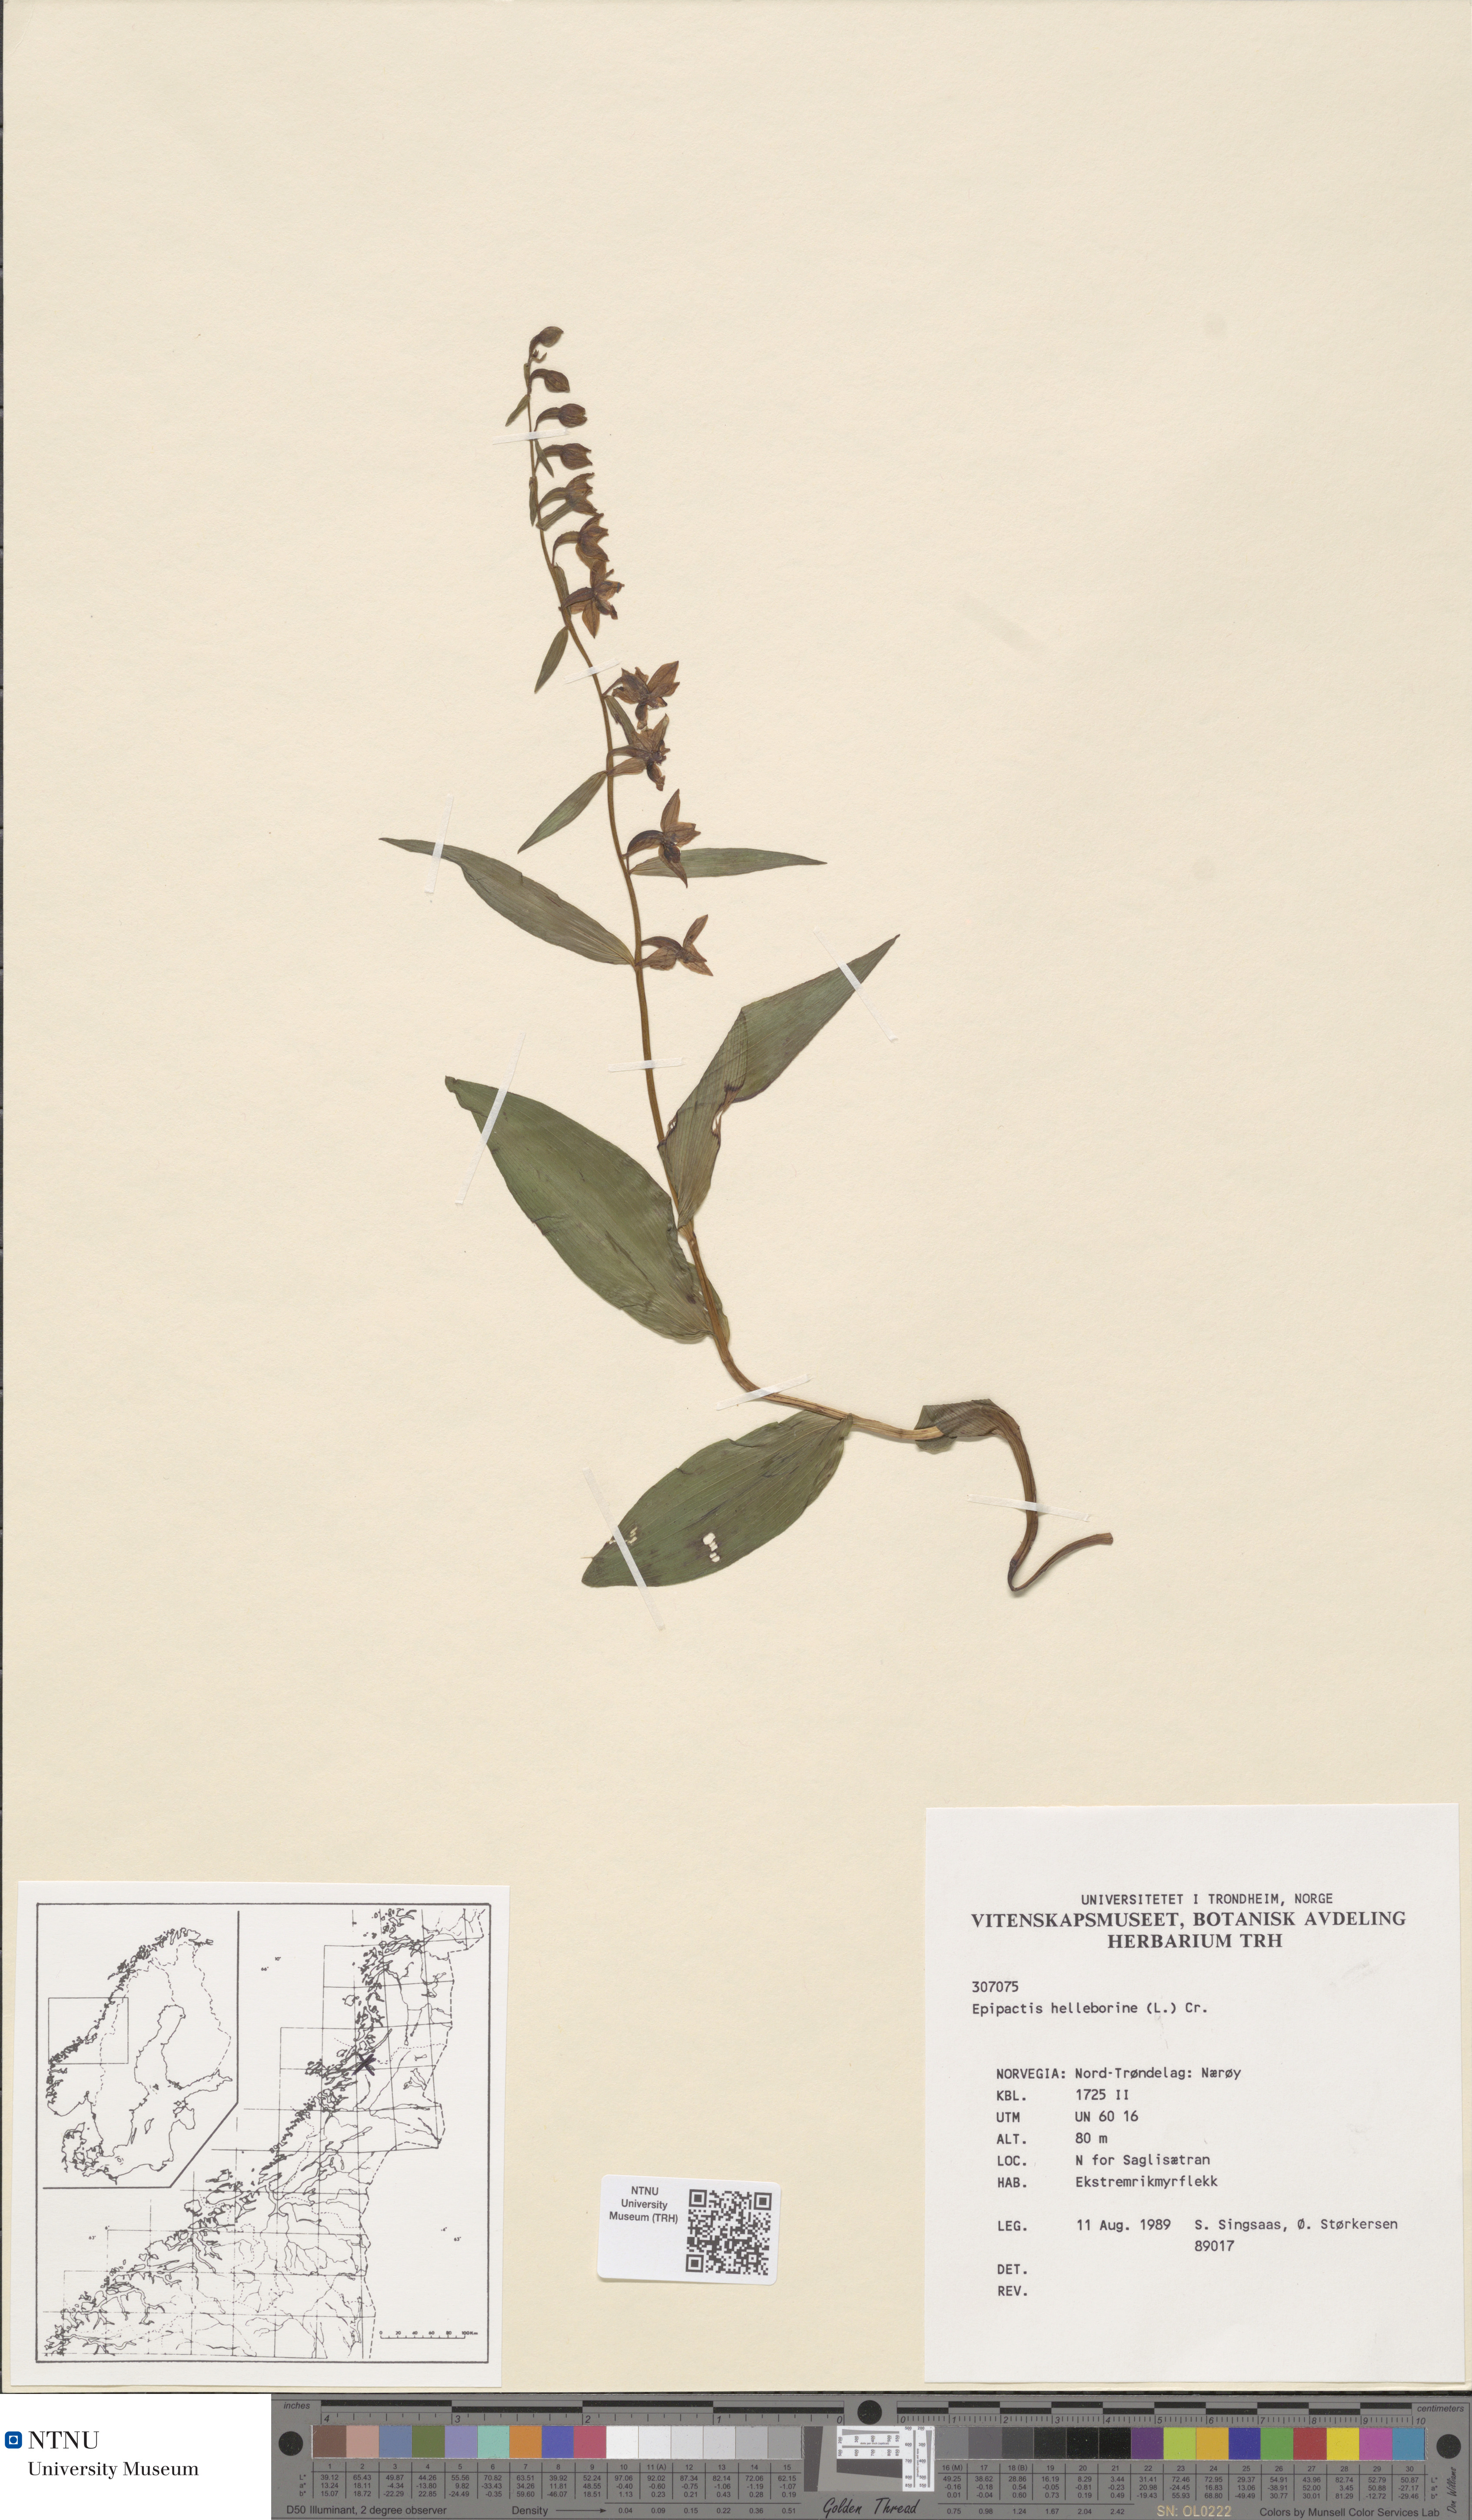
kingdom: Plantae
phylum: Tracheophyta
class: Liliopsida
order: Asparagales
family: Orchidaceae
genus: Epipactis
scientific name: Epipactis helleborine
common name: Broad-leaved helleborine
